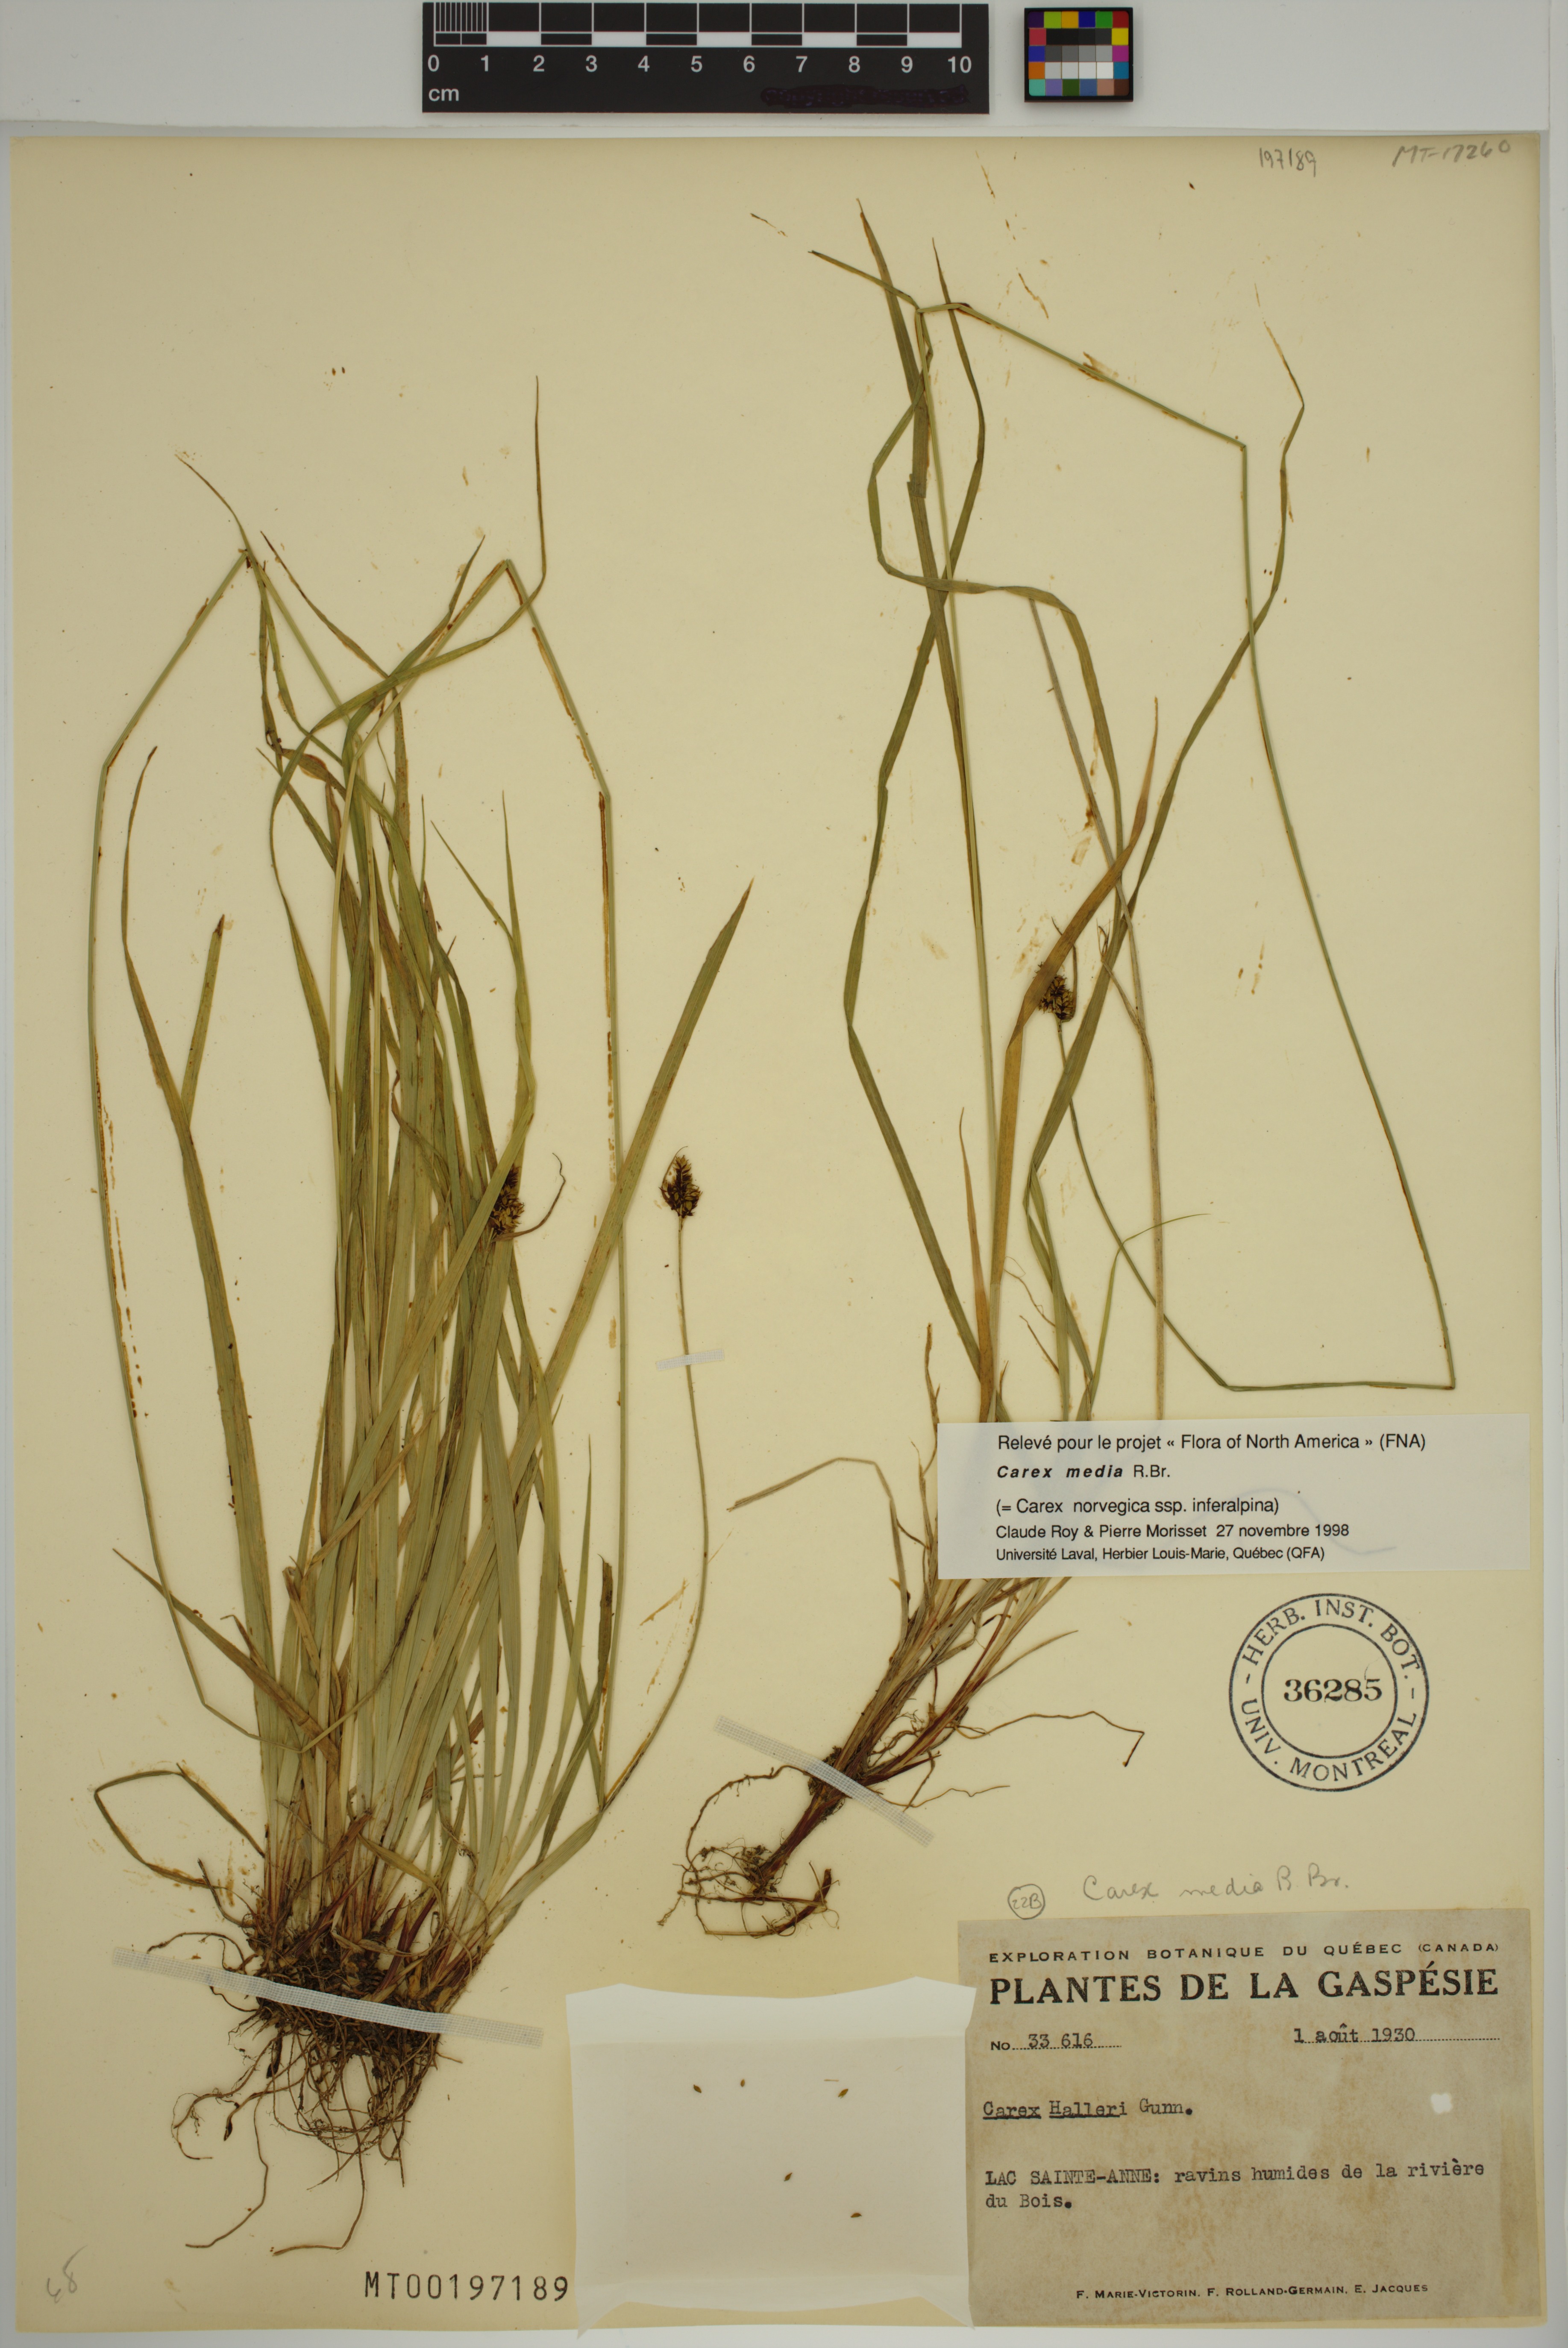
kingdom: Plantae
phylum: Tracheophyta
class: Liliopsida
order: Poales
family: Cyperaceae
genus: Carex
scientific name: Carex media
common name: Alpine sedge
